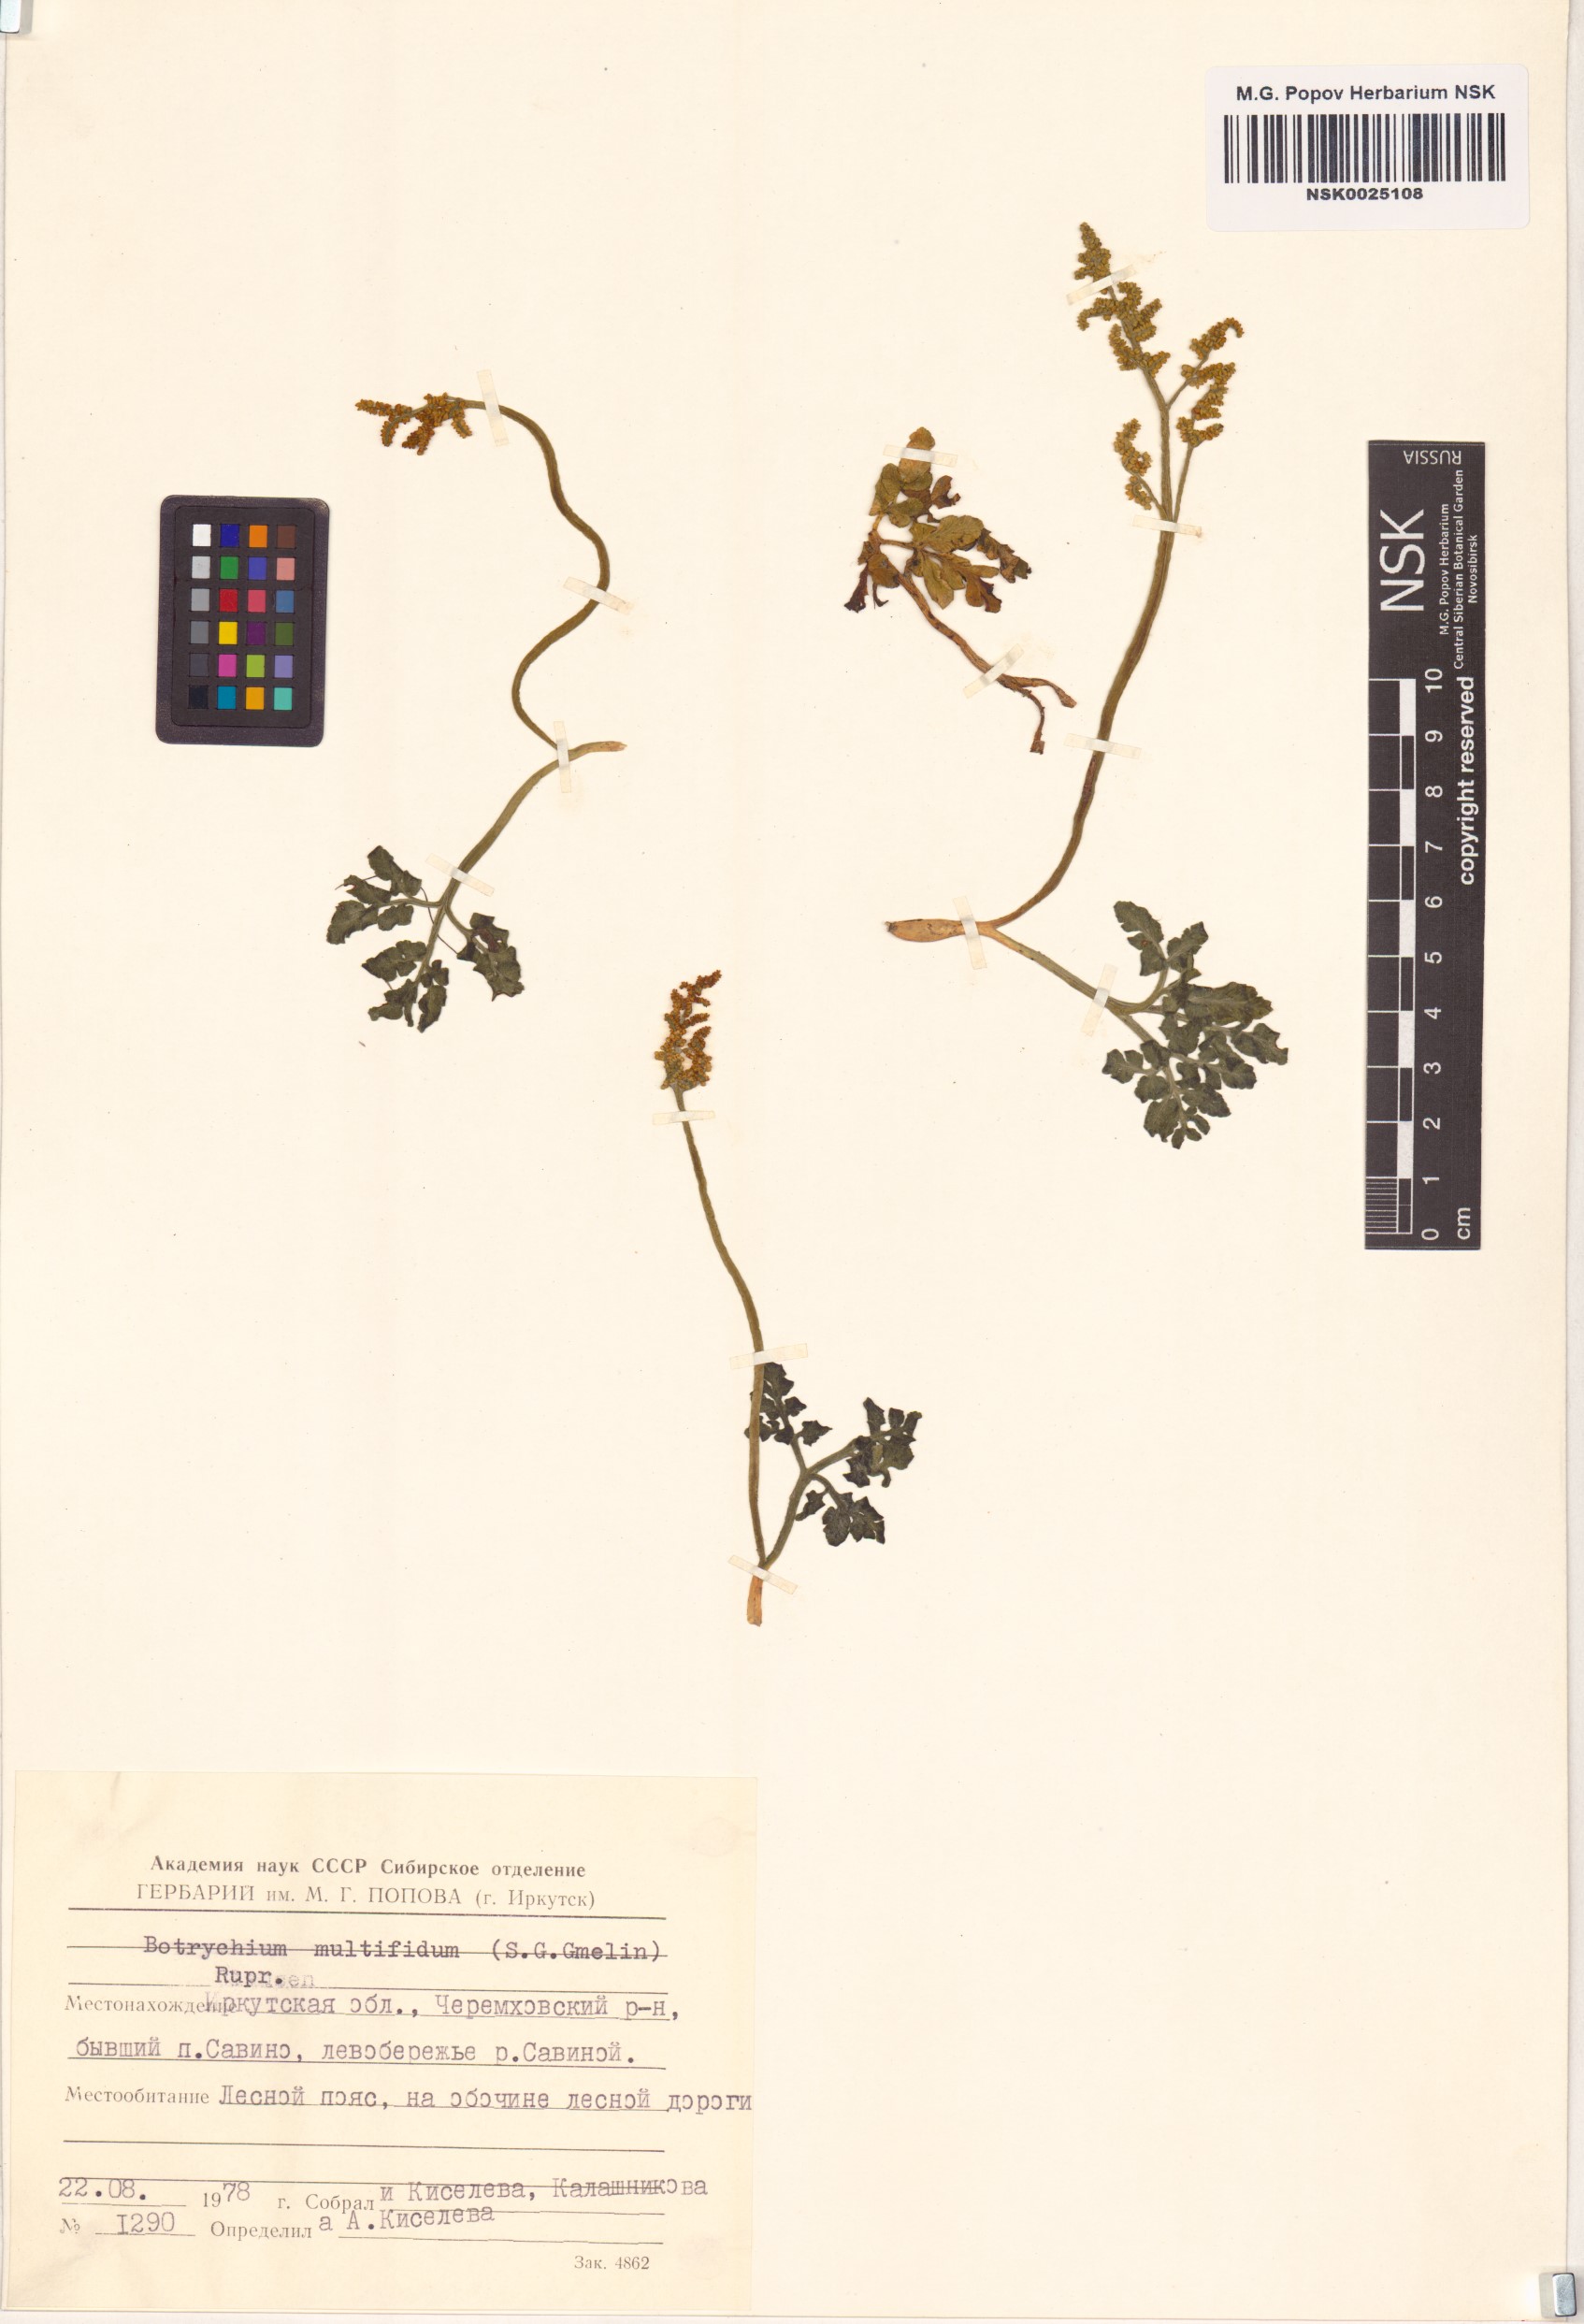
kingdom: Plantae
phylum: Tracheophyta
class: Polypodiopsida
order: Ophioglossales
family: Ophioglossaceae
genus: Sceptridium
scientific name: Sceptridium multifidum
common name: Leathery grape fern
